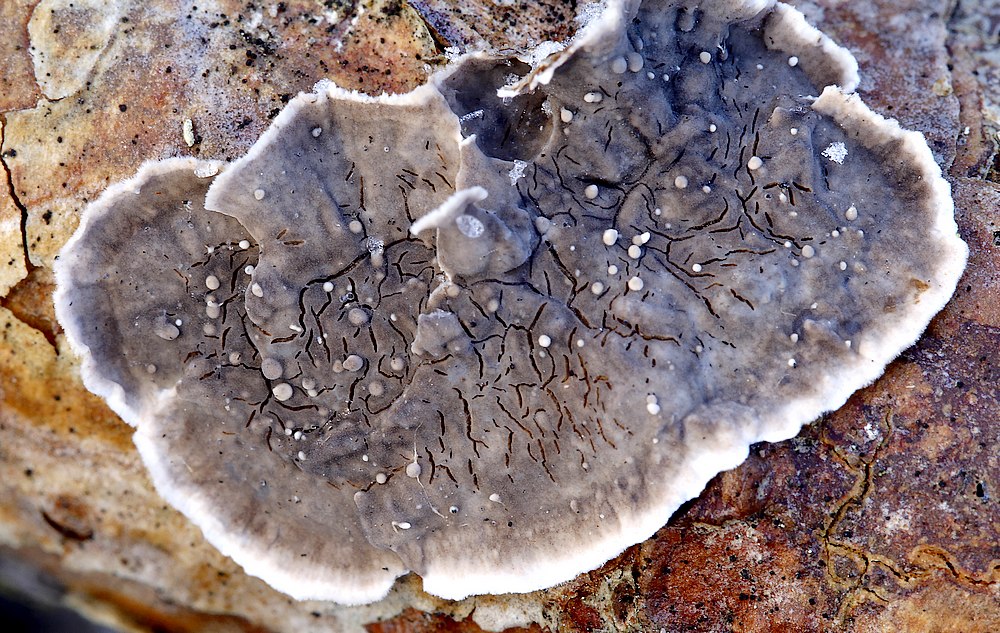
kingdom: Fungi
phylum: Basidiomycota
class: Agaricomycetes
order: Russulales
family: Peniophoraceae
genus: Peniophora
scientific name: Peniophora pini
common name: fyrre-voksskind
